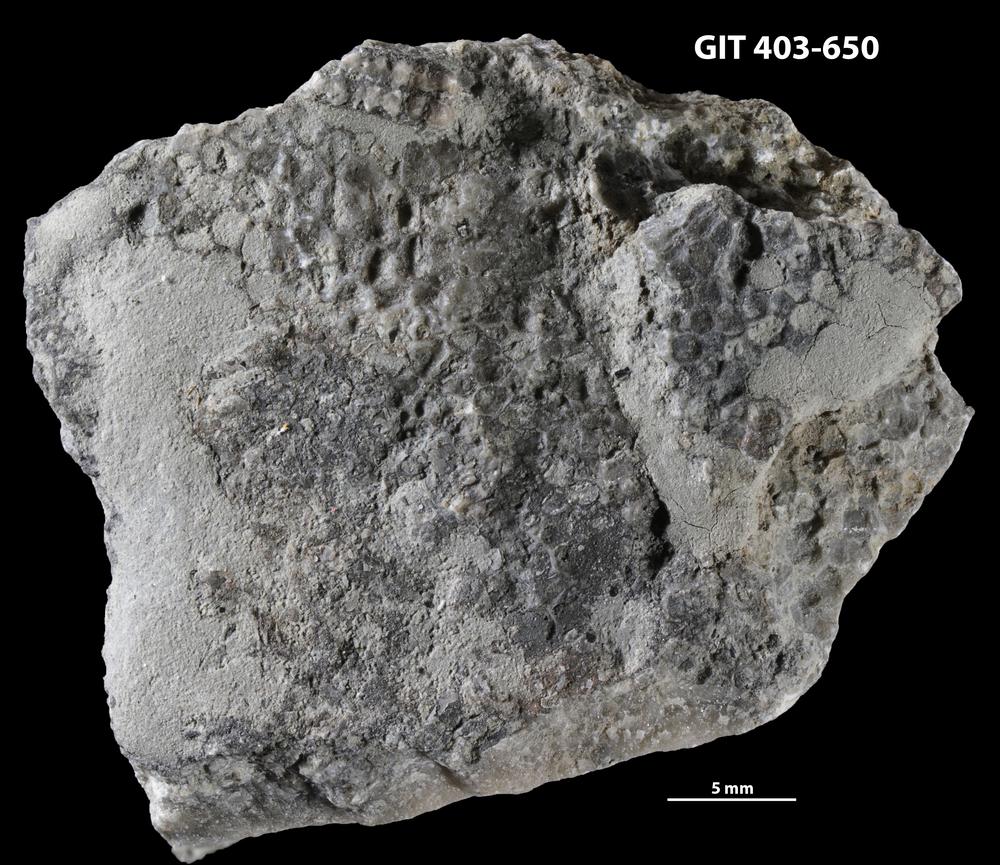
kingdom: Animalia
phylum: Cnidaria
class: Anthozoa
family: Favositidae
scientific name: Favositidae
